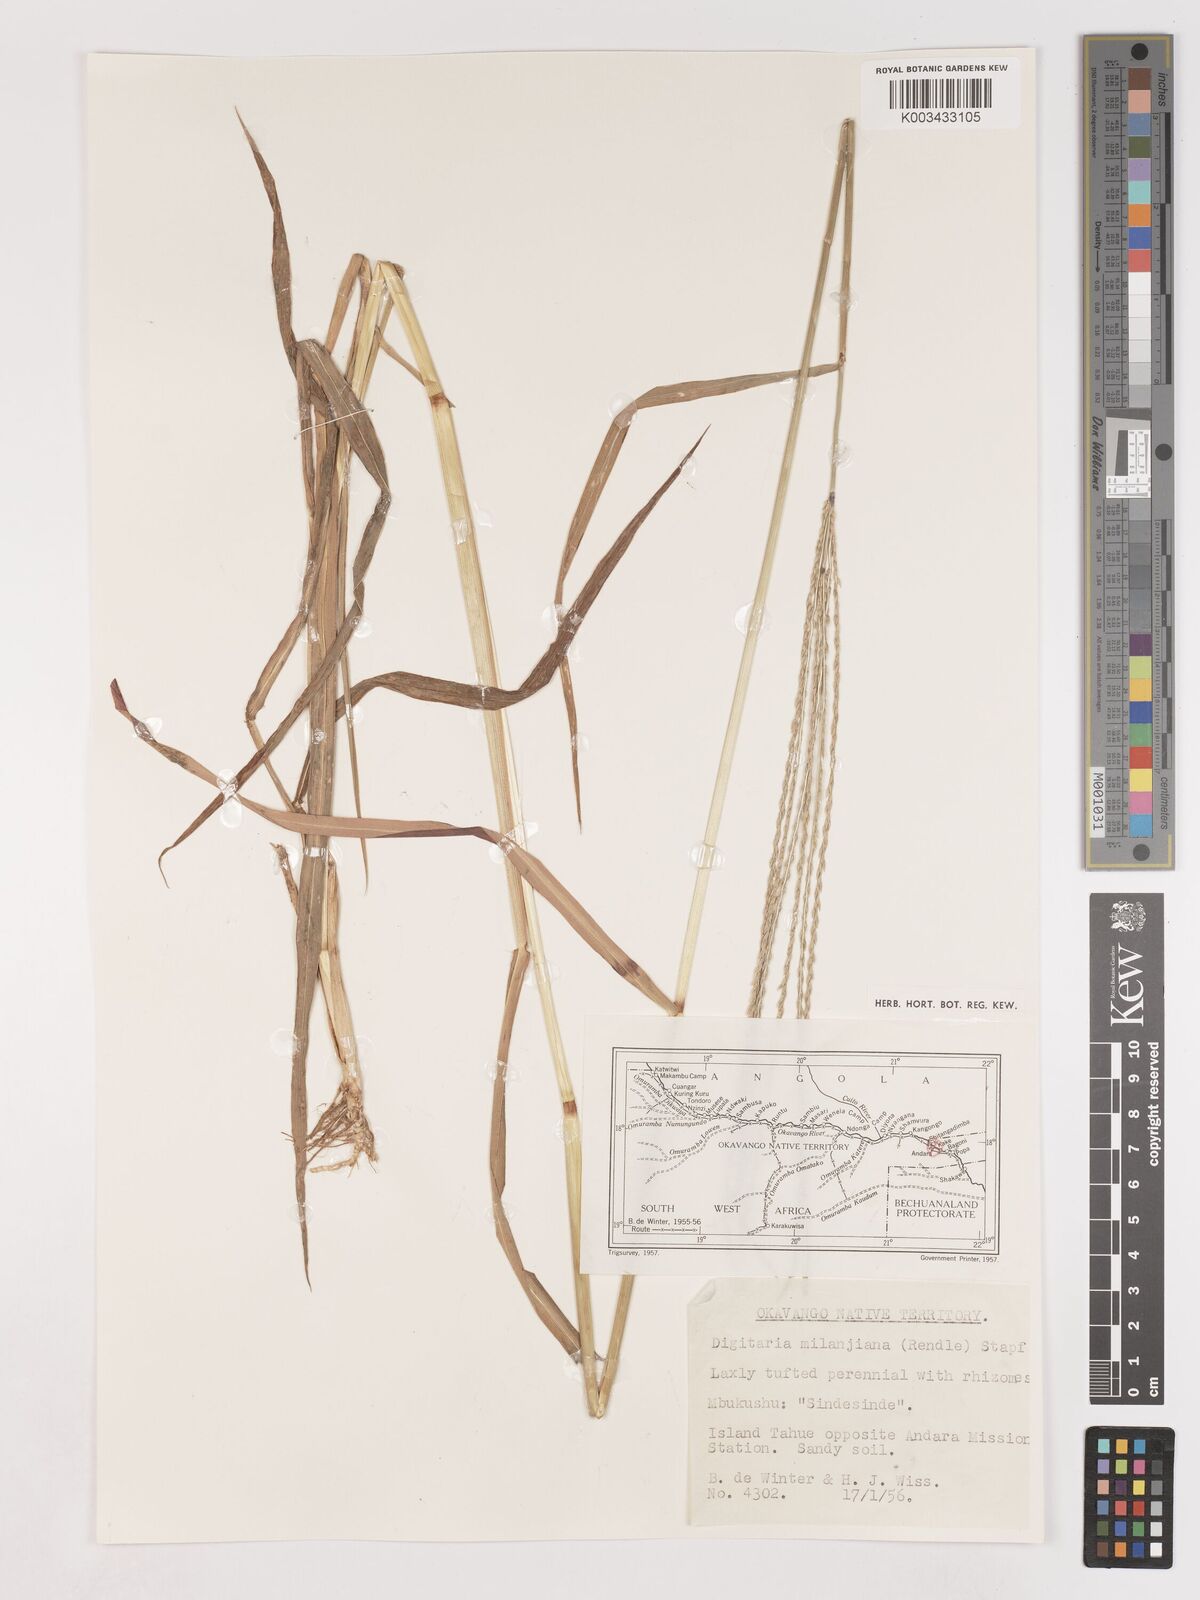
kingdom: Plantae
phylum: Tracheophyta
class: Liliopsida
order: Poales
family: Poaceae
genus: Digitaria
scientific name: Digitaria milanjiana
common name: Madagascar crabgrass
